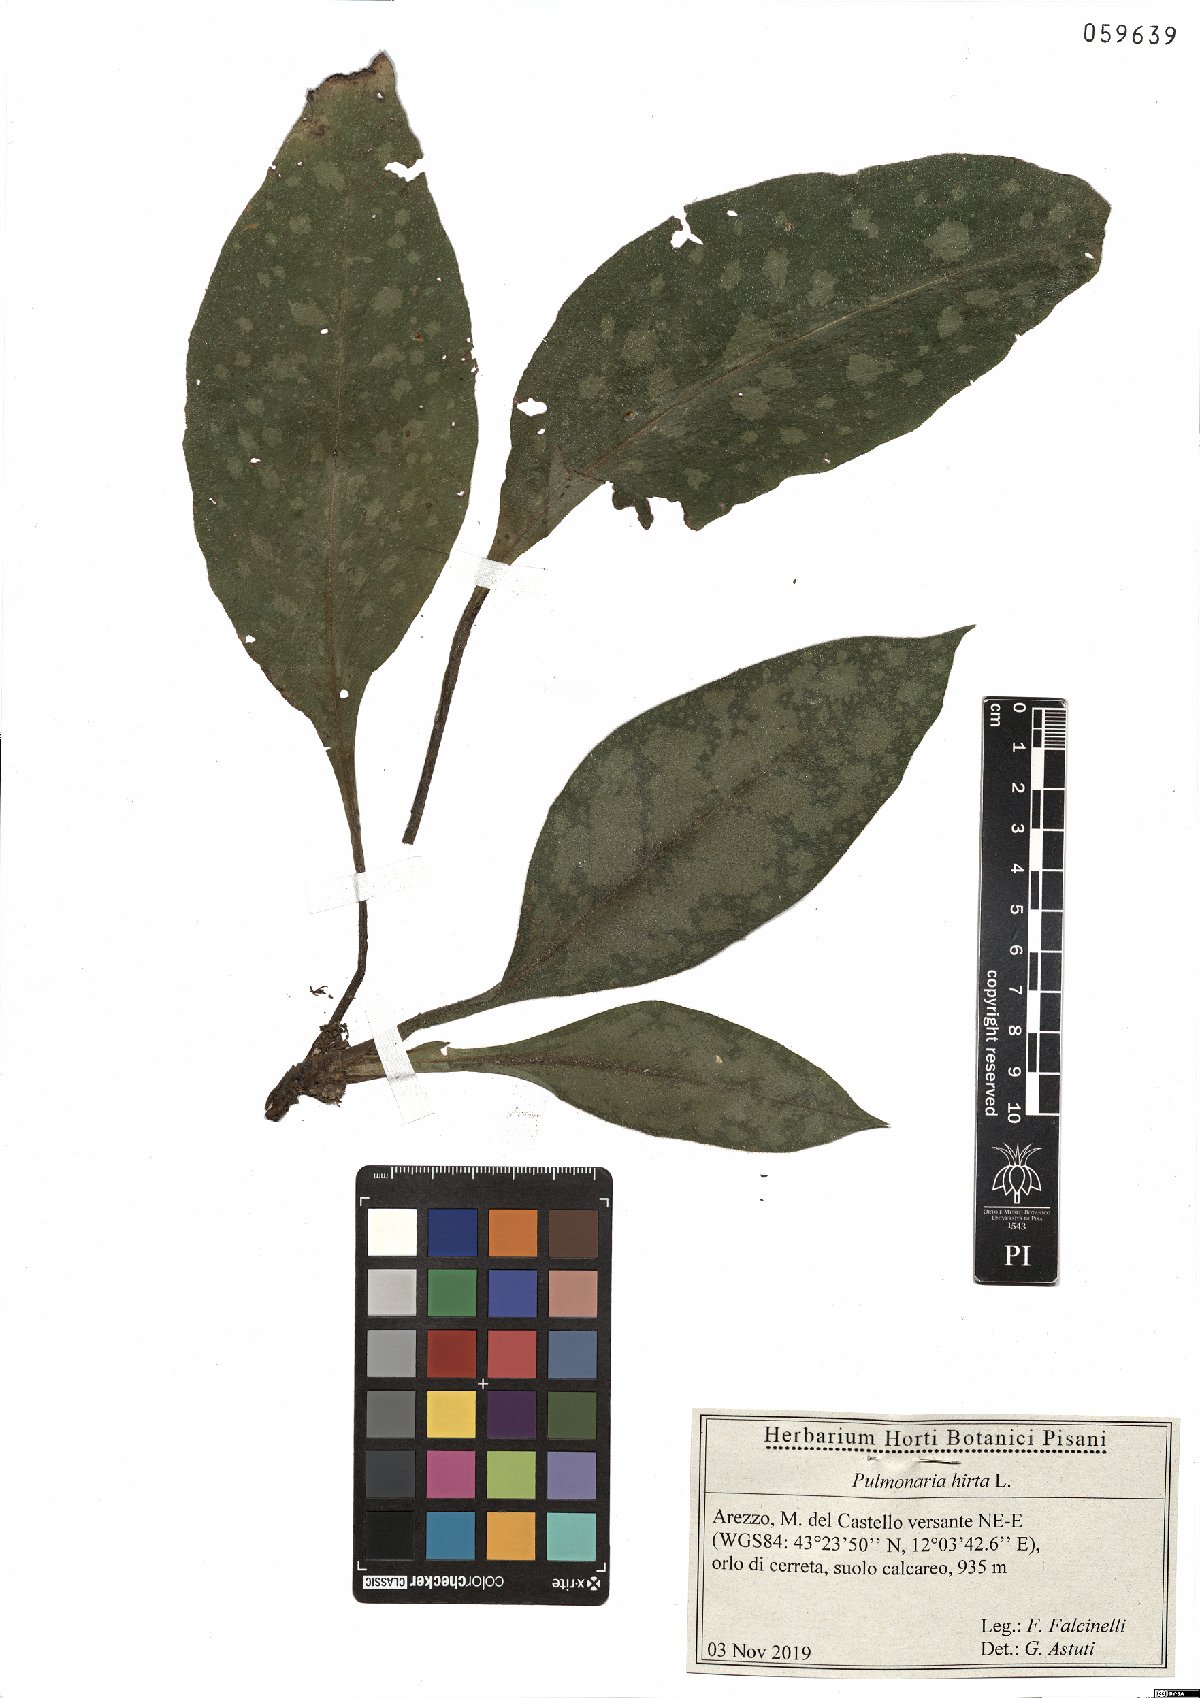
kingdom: Plantae
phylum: Tracheophyta
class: Magnoliopsida
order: Boraginales
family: Boraginaceae
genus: Pulmonaria
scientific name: Pulmonaria hirta
